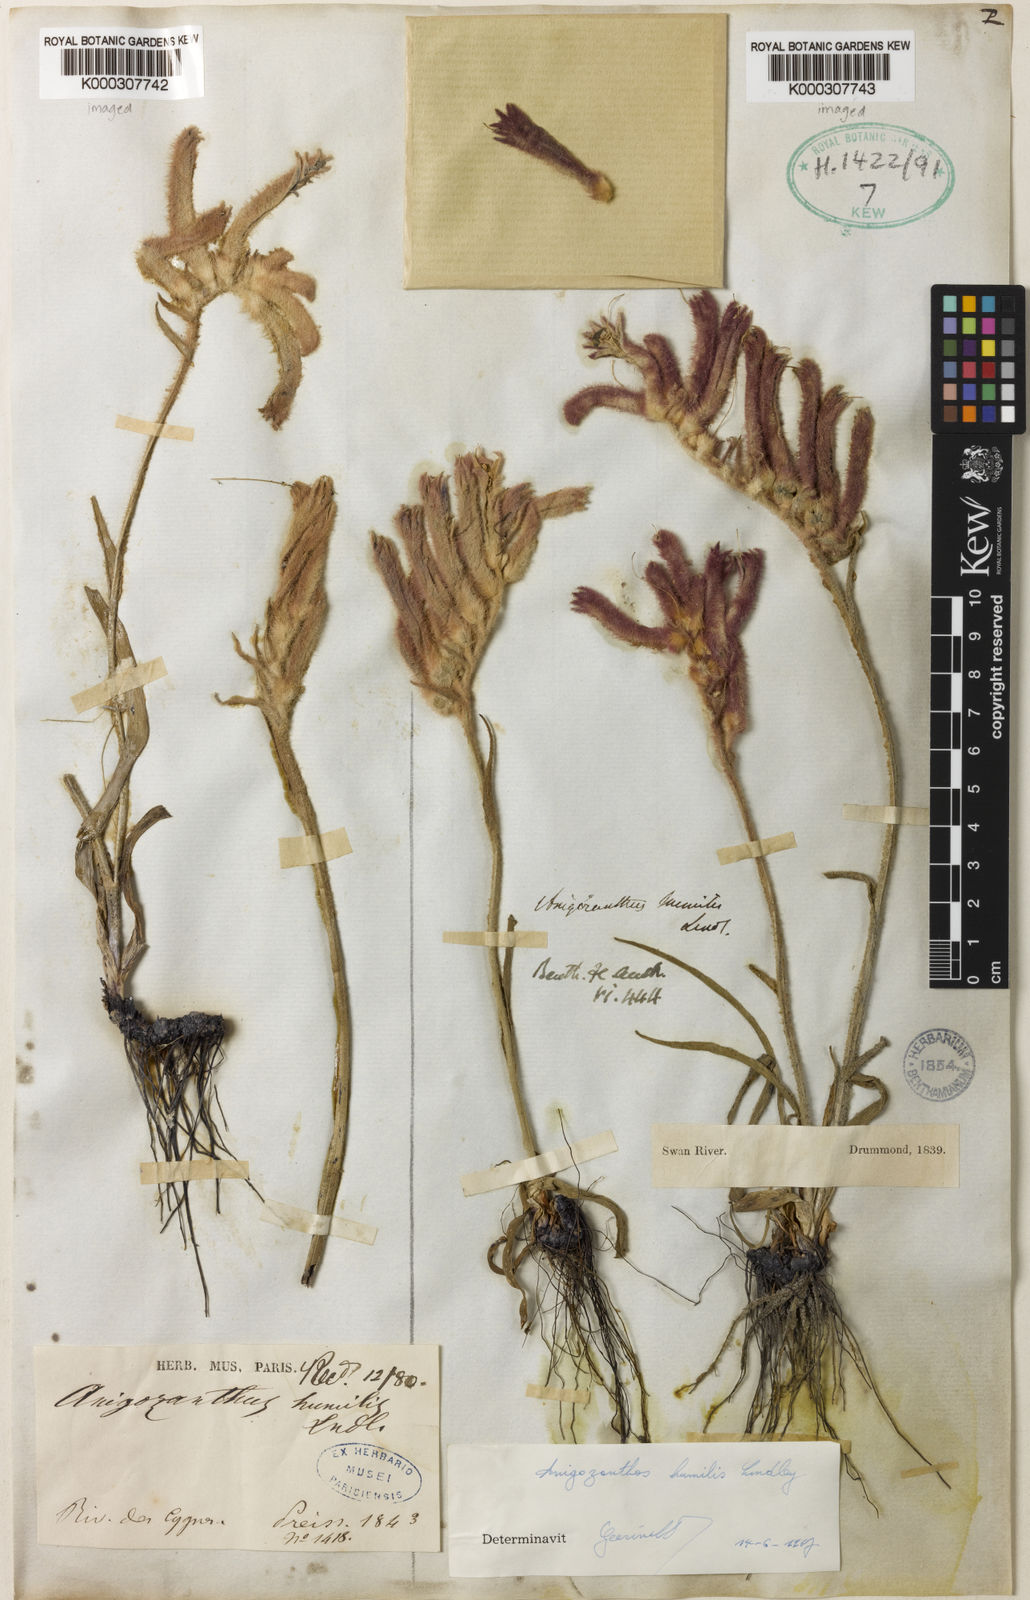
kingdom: Plantae
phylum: Tracheophyta
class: Liliopsida
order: Commelinales
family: Haemodoraceae
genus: Anigozanthos
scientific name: Anigozanthos humilis
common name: Cat's-paw
